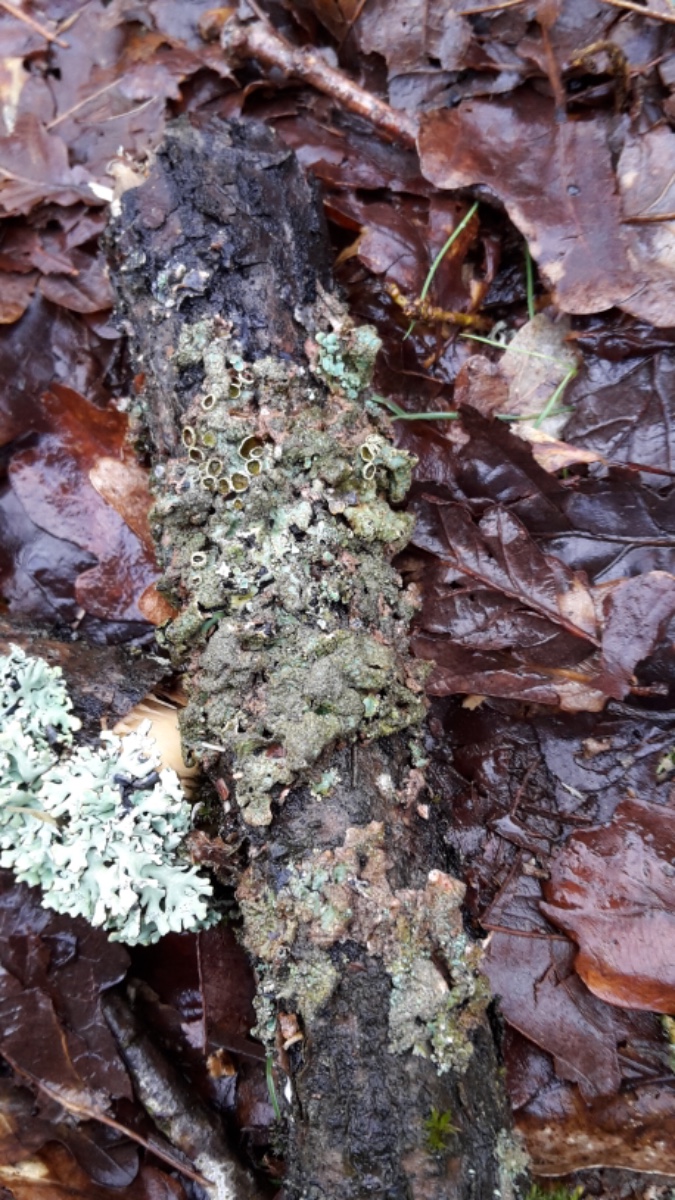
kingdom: Fungi
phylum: Ascomycota
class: Lecanoromycetes
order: Lecanorales
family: Parmeliaceae
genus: Parmelia
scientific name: Parmelia sulcata
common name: rynket skållav
